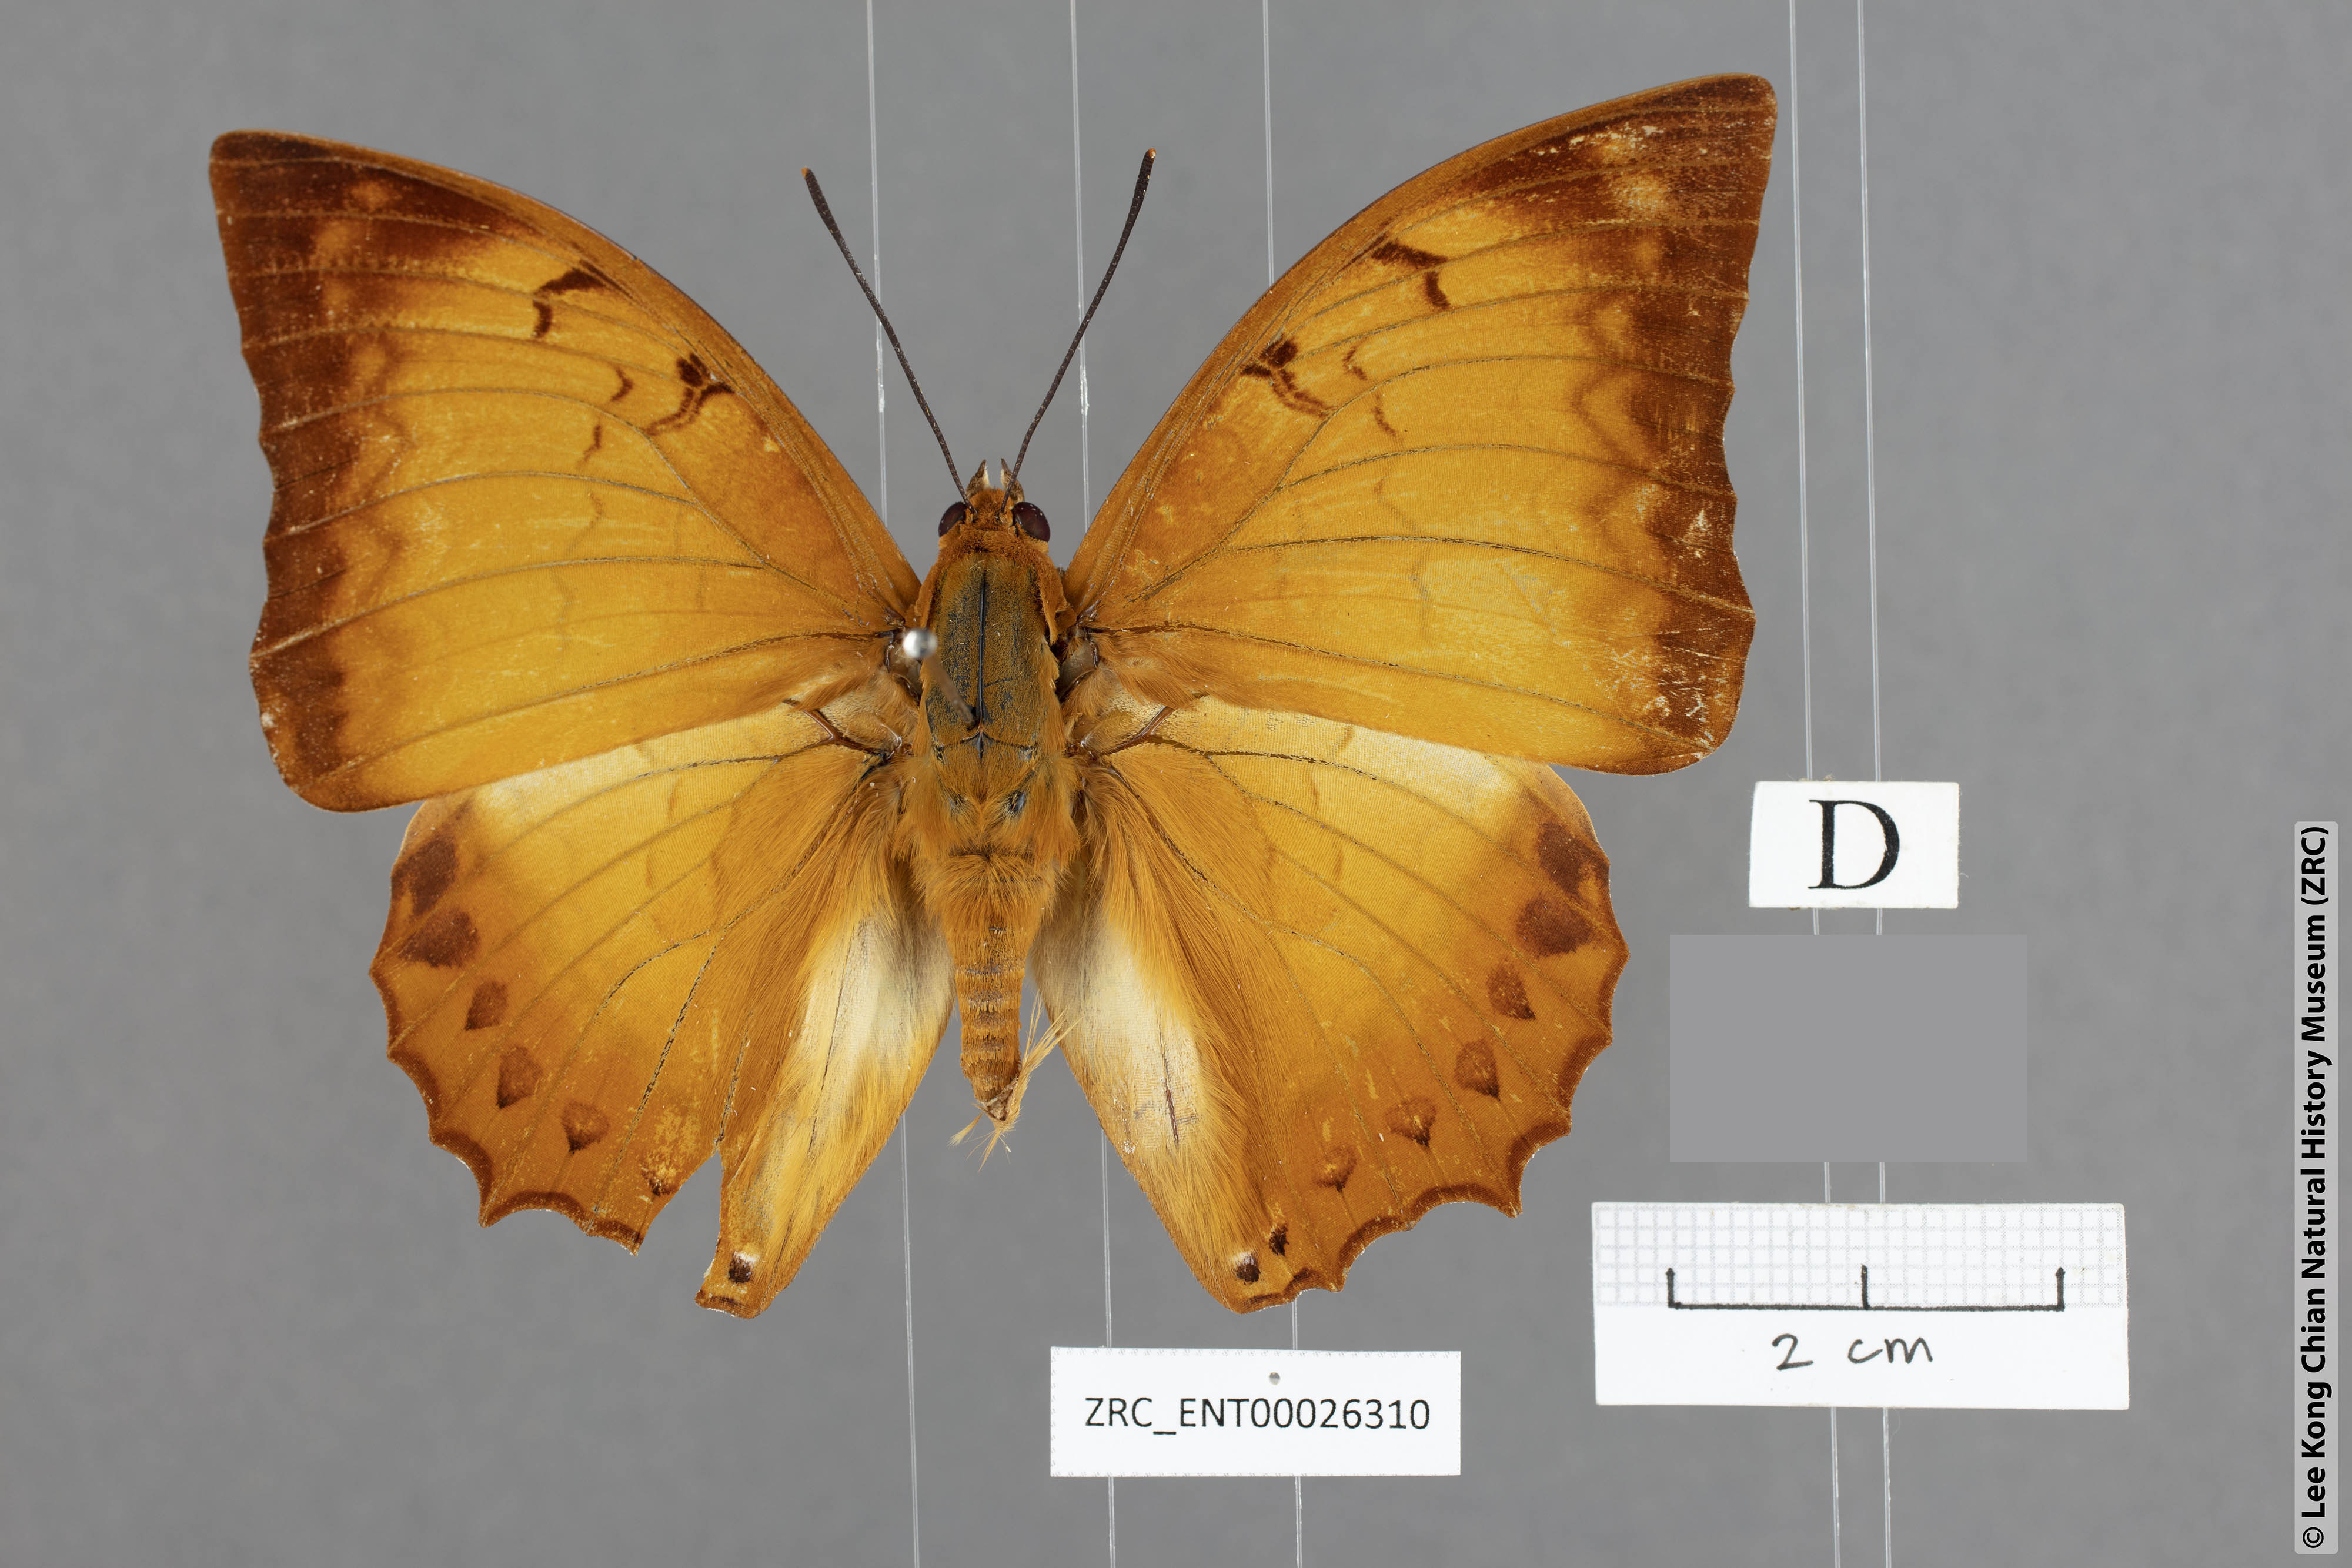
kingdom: Animalia
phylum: Arthropoda
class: Insecta
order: Lepidoptera
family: Nymphalidae
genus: Charaxes
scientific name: Charaxes distanti
